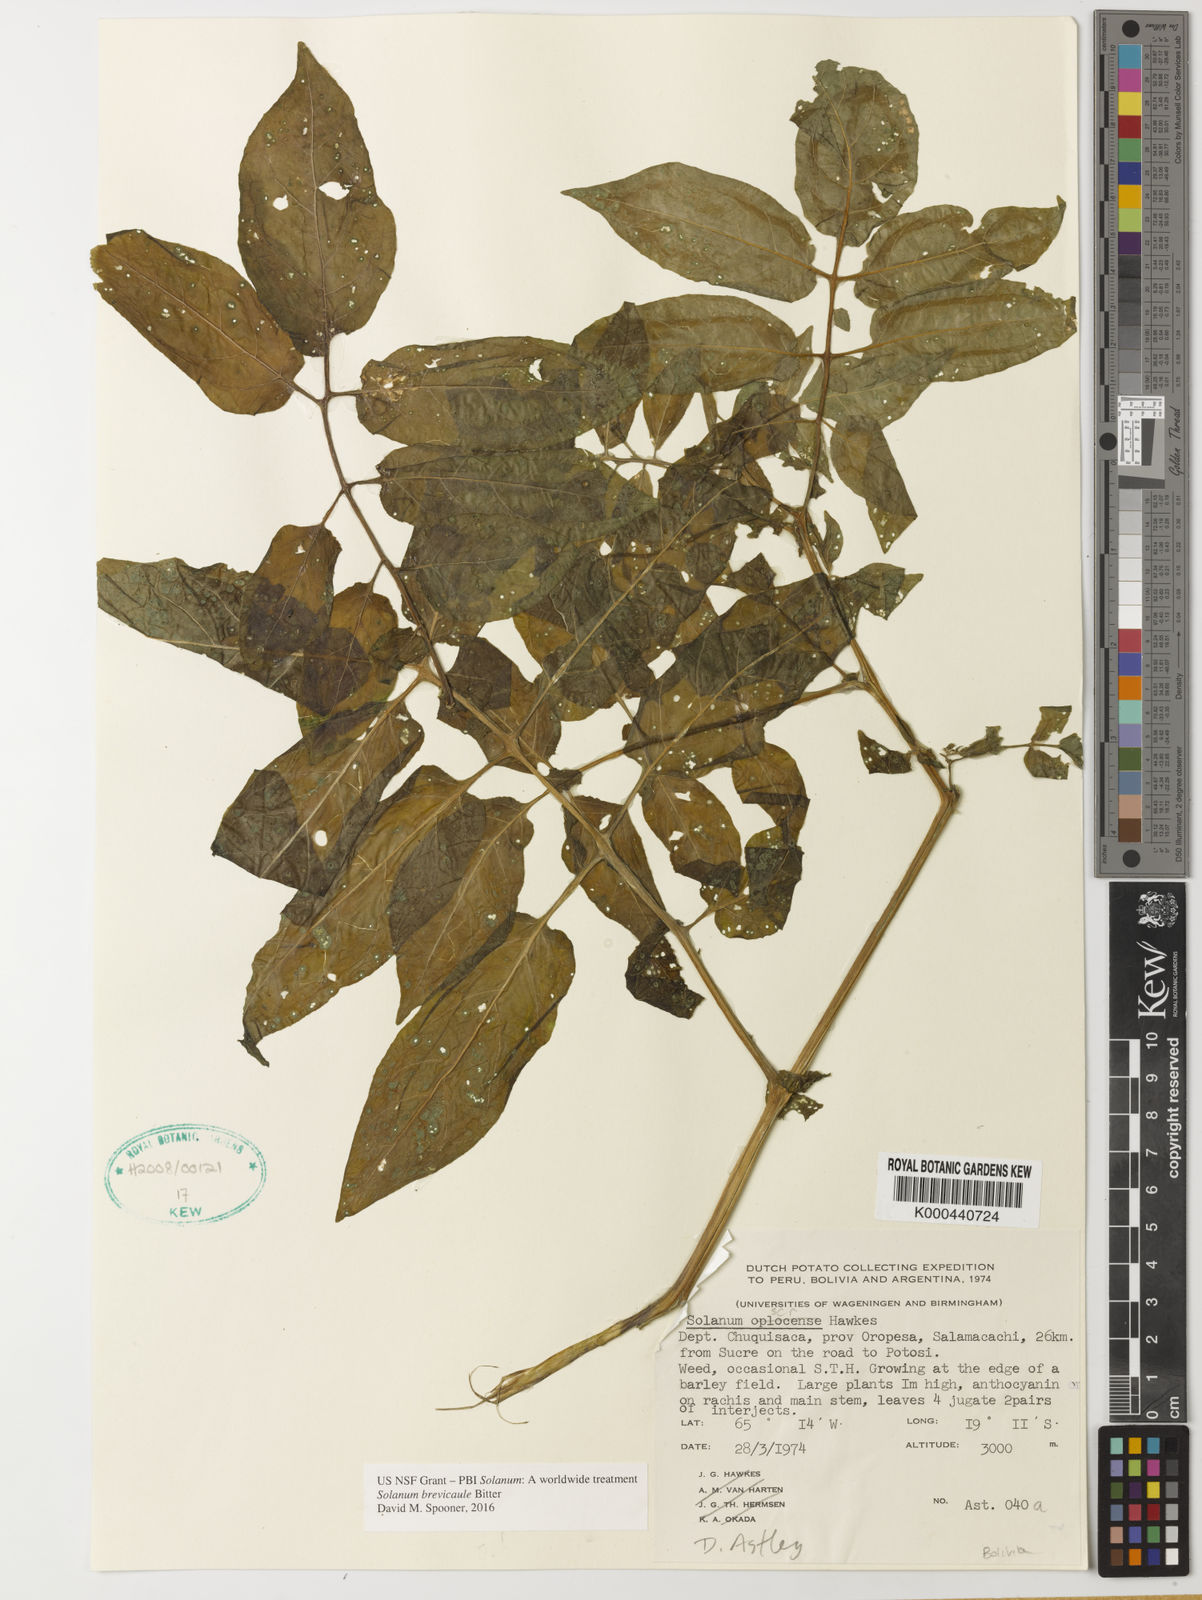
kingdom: Plantae
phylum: Tracheophyta
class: Magnoliopsida
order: Solanales
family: Solanaceae
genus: Solanum
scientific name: Solanum brevicaule
